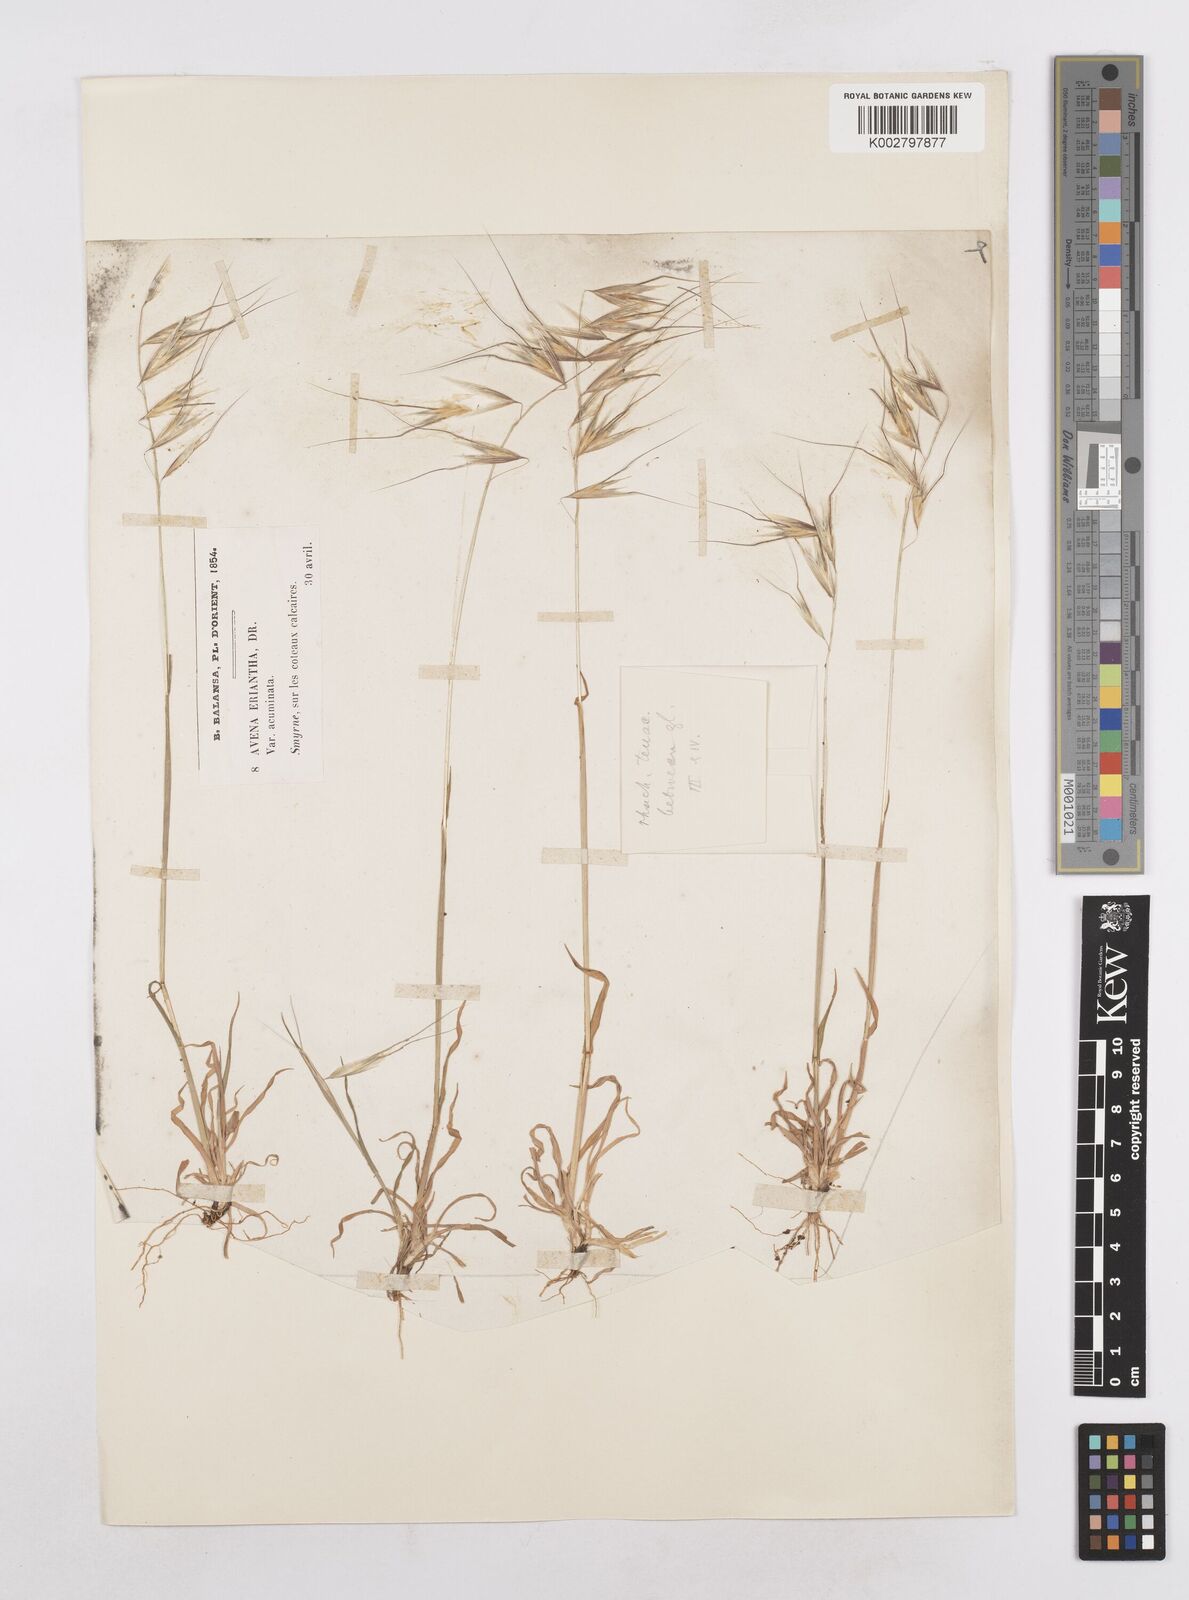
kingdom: Plantae
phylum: Tracheophyta
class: Liliopsida
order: Poales
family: Poaceae
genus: Avena
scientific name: Avena eriantha
